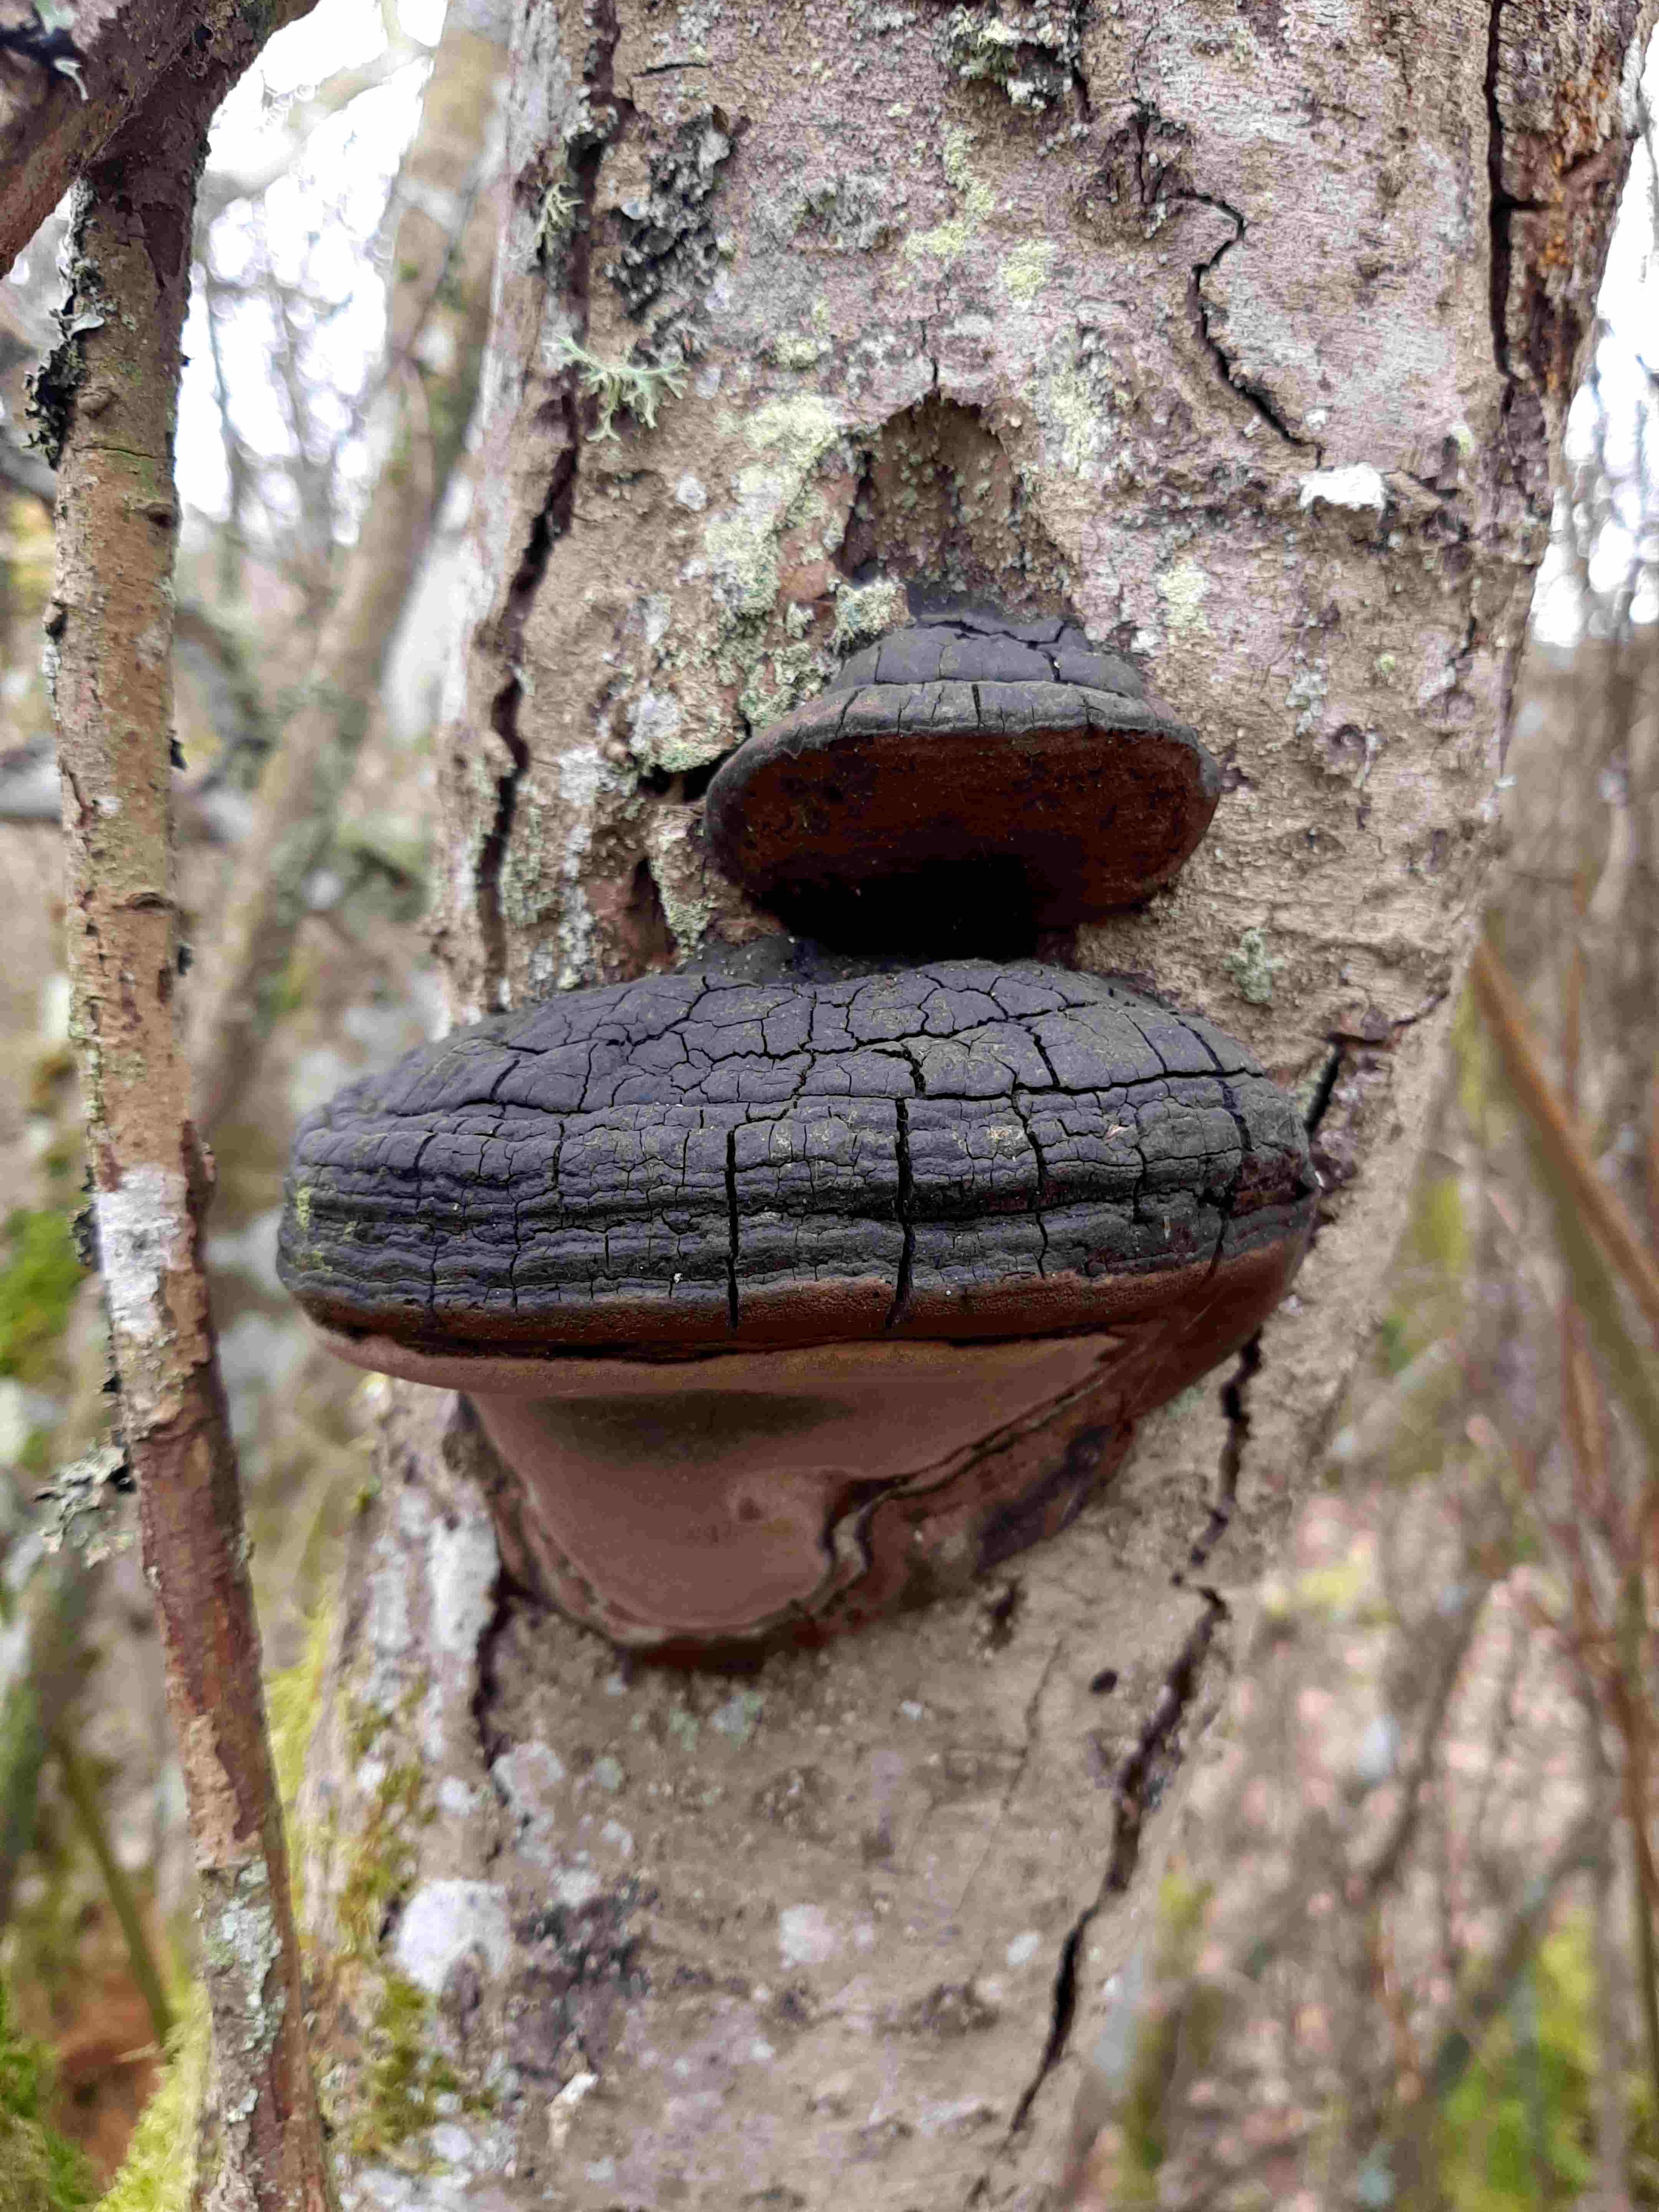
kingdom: Fungi
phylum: Basidiomycota
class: Agaricomycetes
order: Hymenochaetales
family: Hymenochaetaceae
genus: Phellinus
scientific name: Phellinus igniarius
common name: almindelig ildporesvamp
